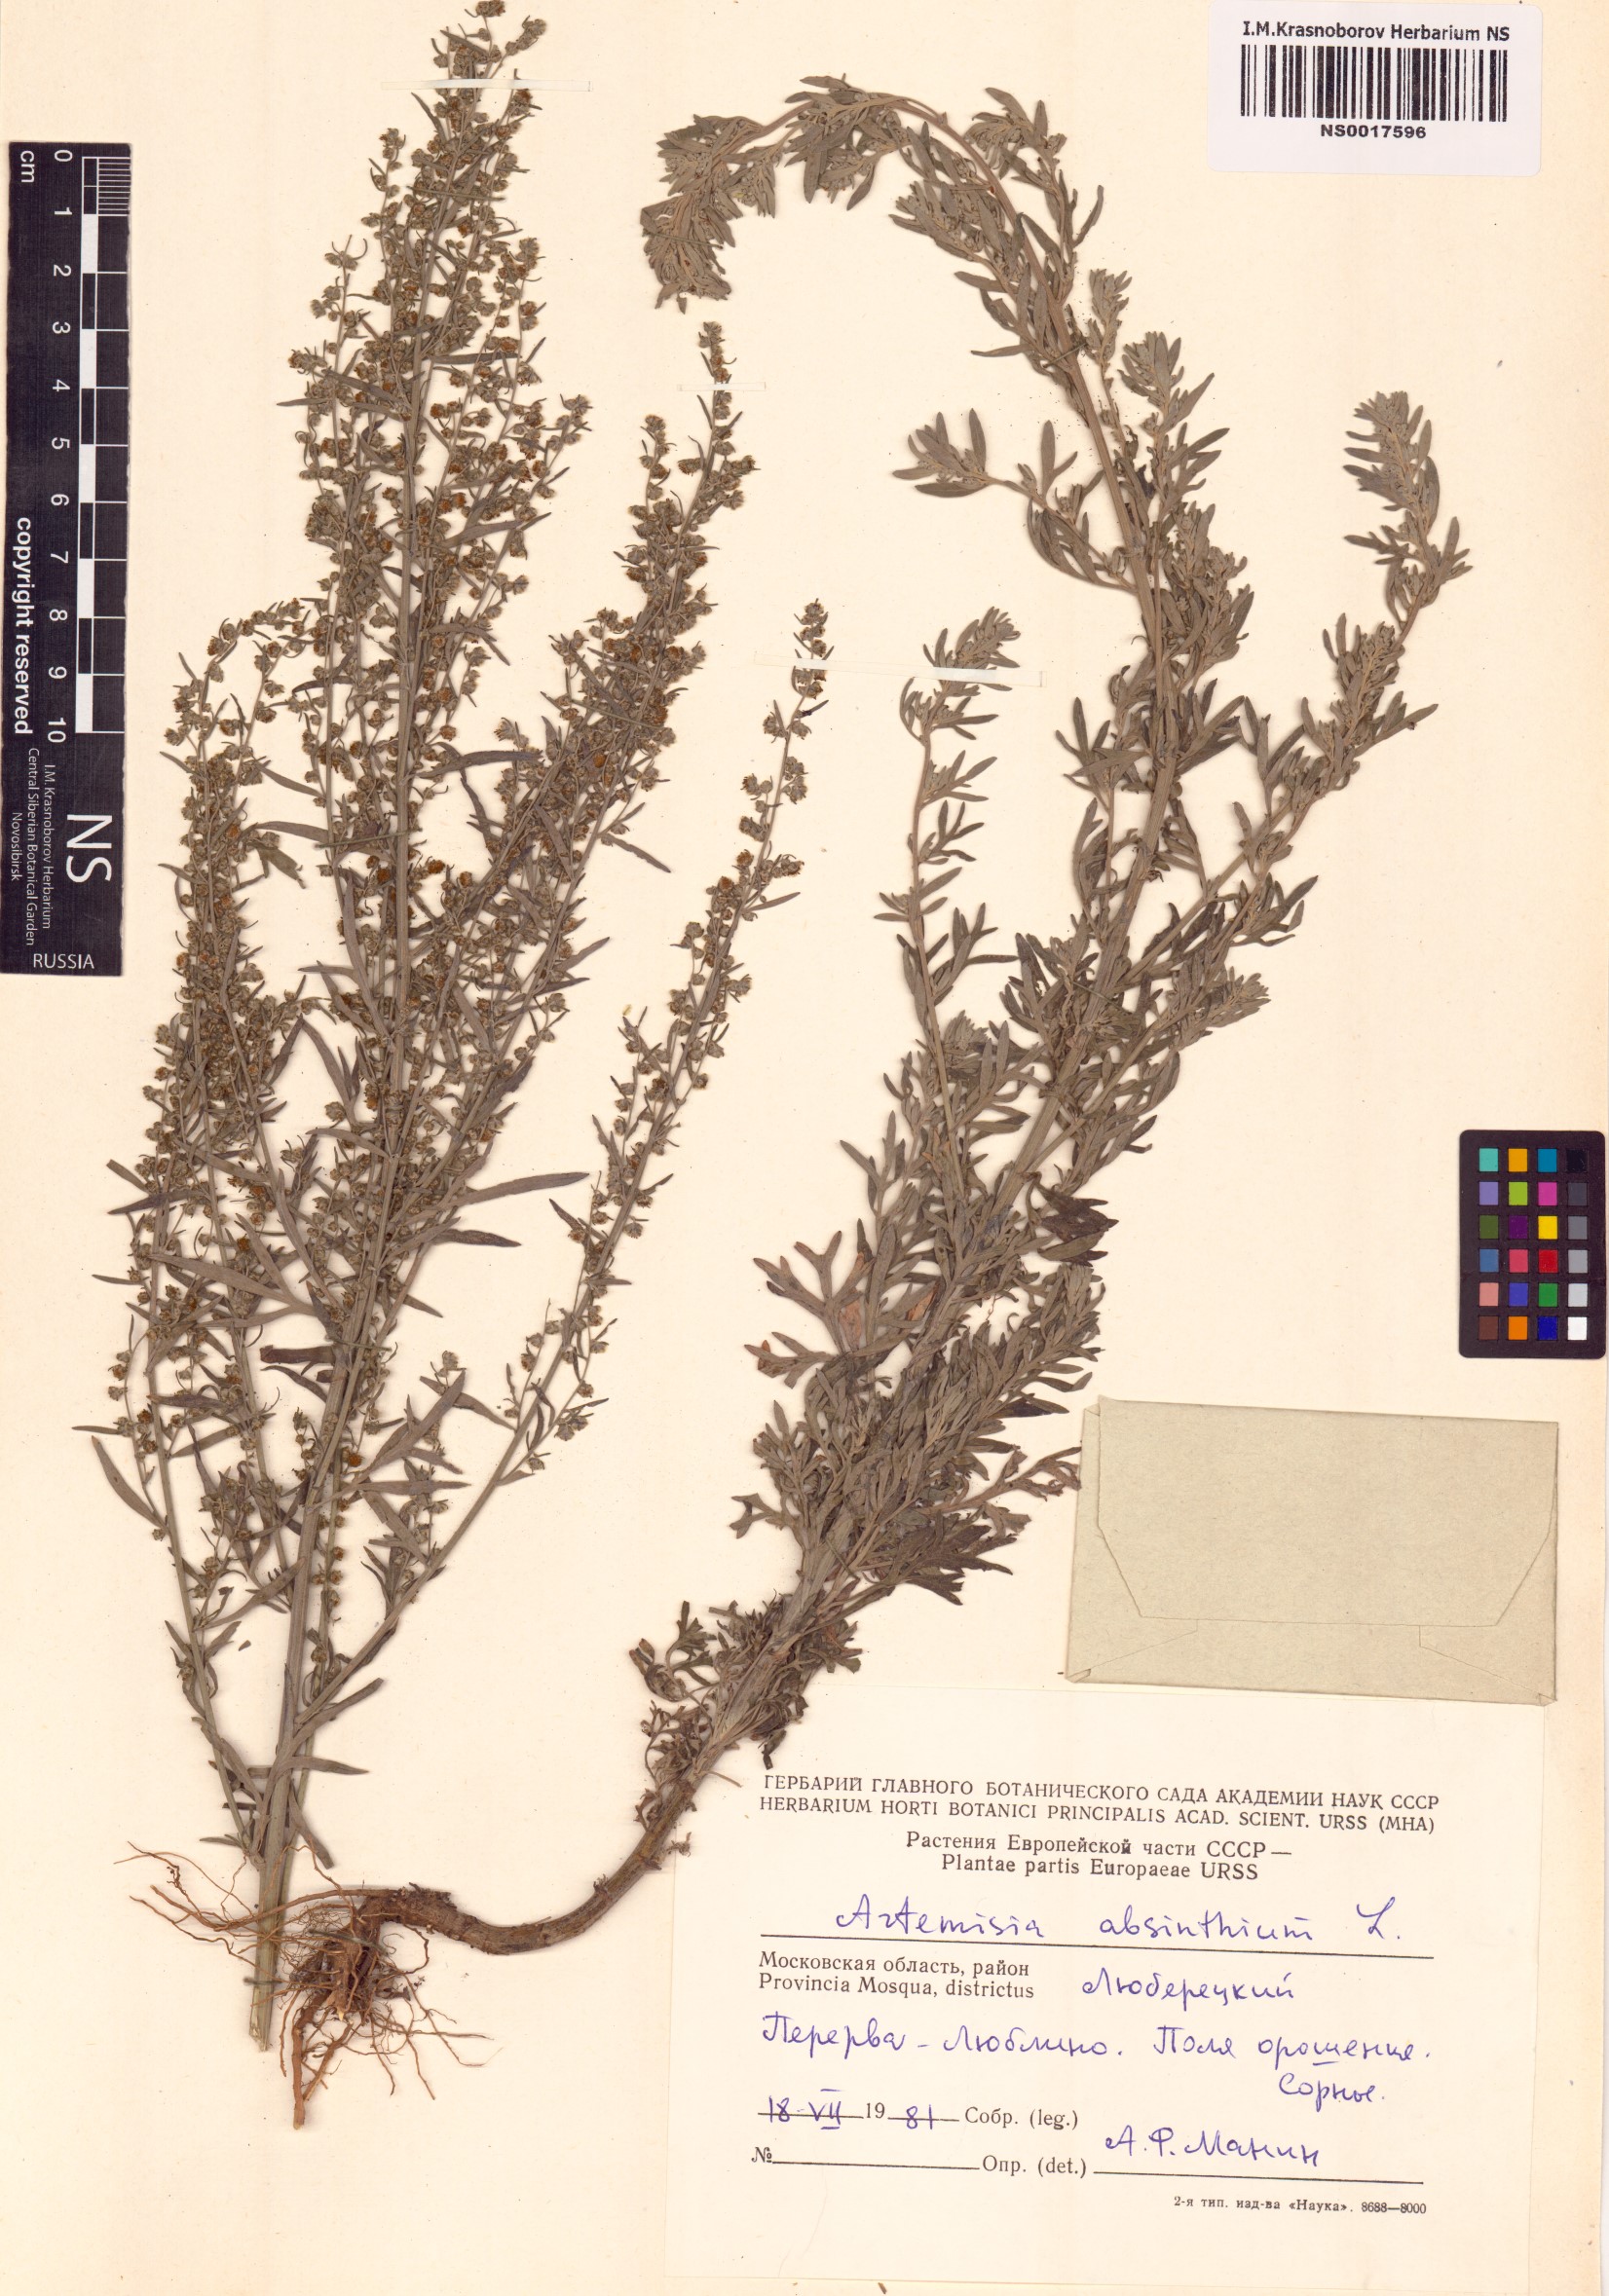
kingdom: Plantae
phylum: Tracheophyta
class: Magnoliopsida
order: Asterales
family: Asteraceae
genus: Artemisia
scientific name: Artemisia absinthium
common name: Wormwood
